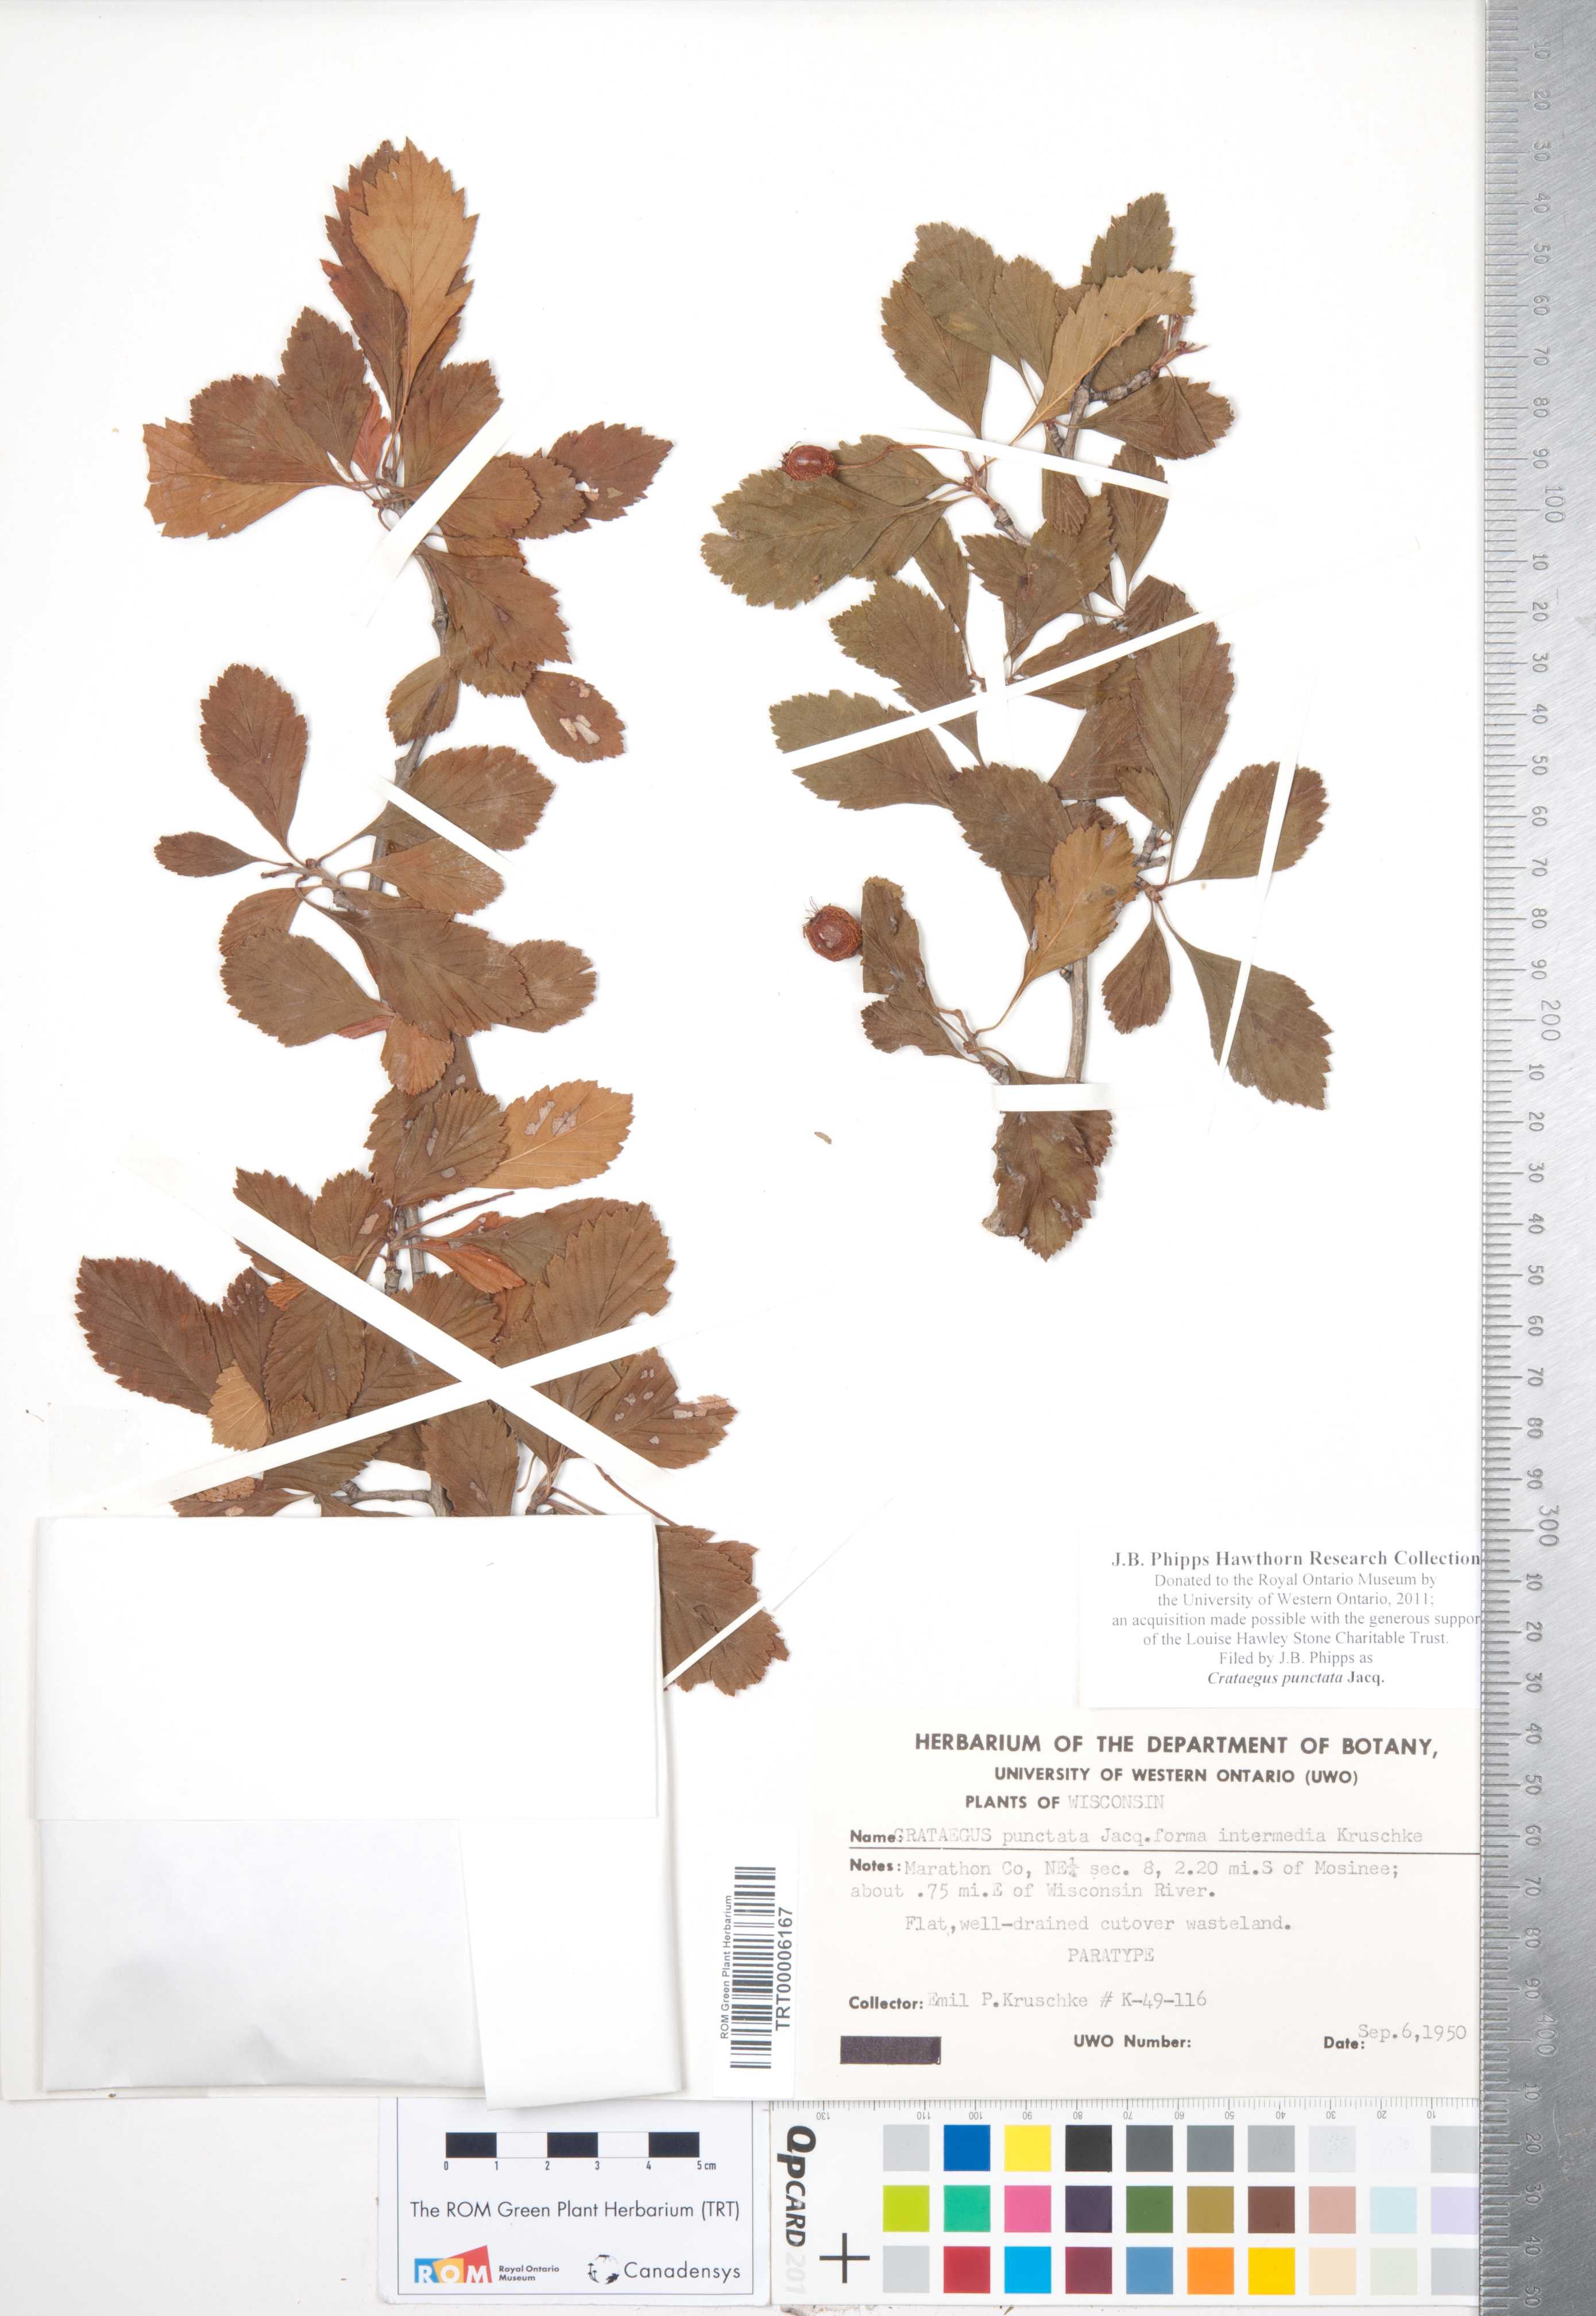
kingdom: Plantae
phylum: Tracheophyta
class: Magnoliopsida
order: Rosales
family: Rosaceae
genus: Crataegus
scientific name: Crataegus punctata
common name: Dotted hawthorn
